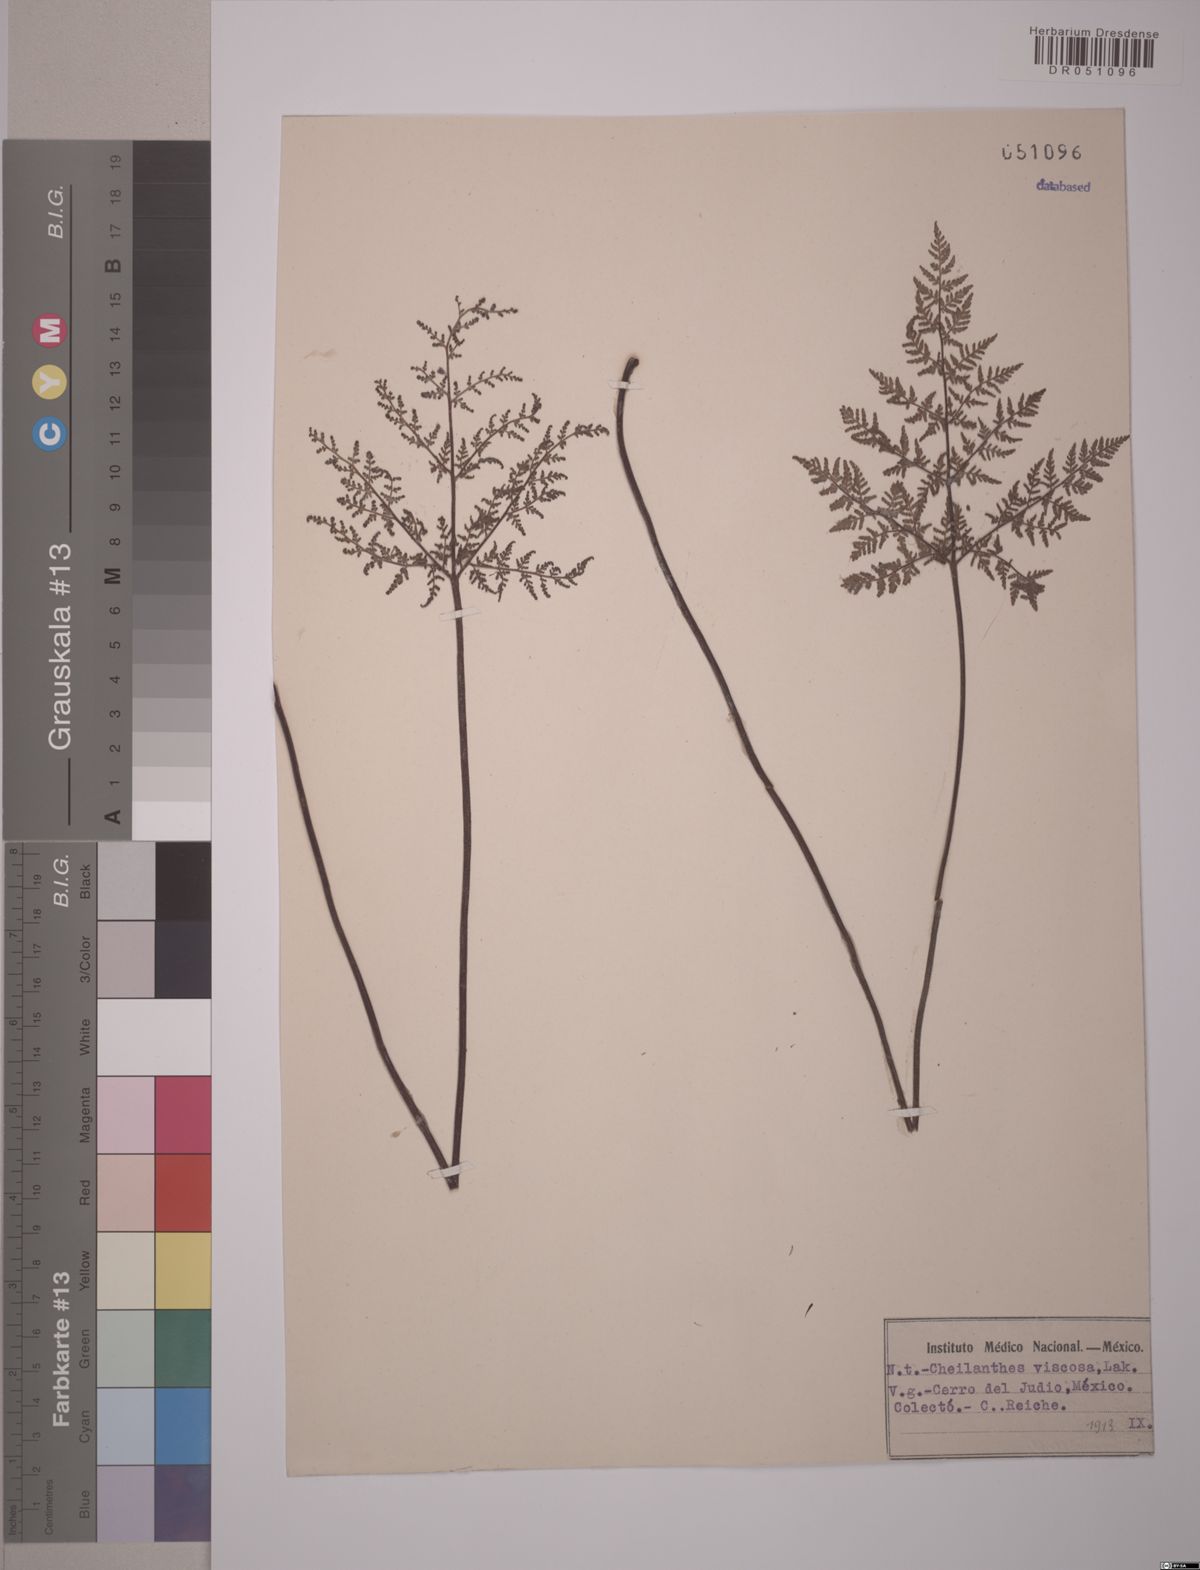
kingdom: Plantae
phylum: Tracheophyta
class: Polypodiopsida
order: Polypodiales
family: Pteridaceae
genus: Gaga
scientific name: Gaga kaulfussii
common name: Glandular lip fern
